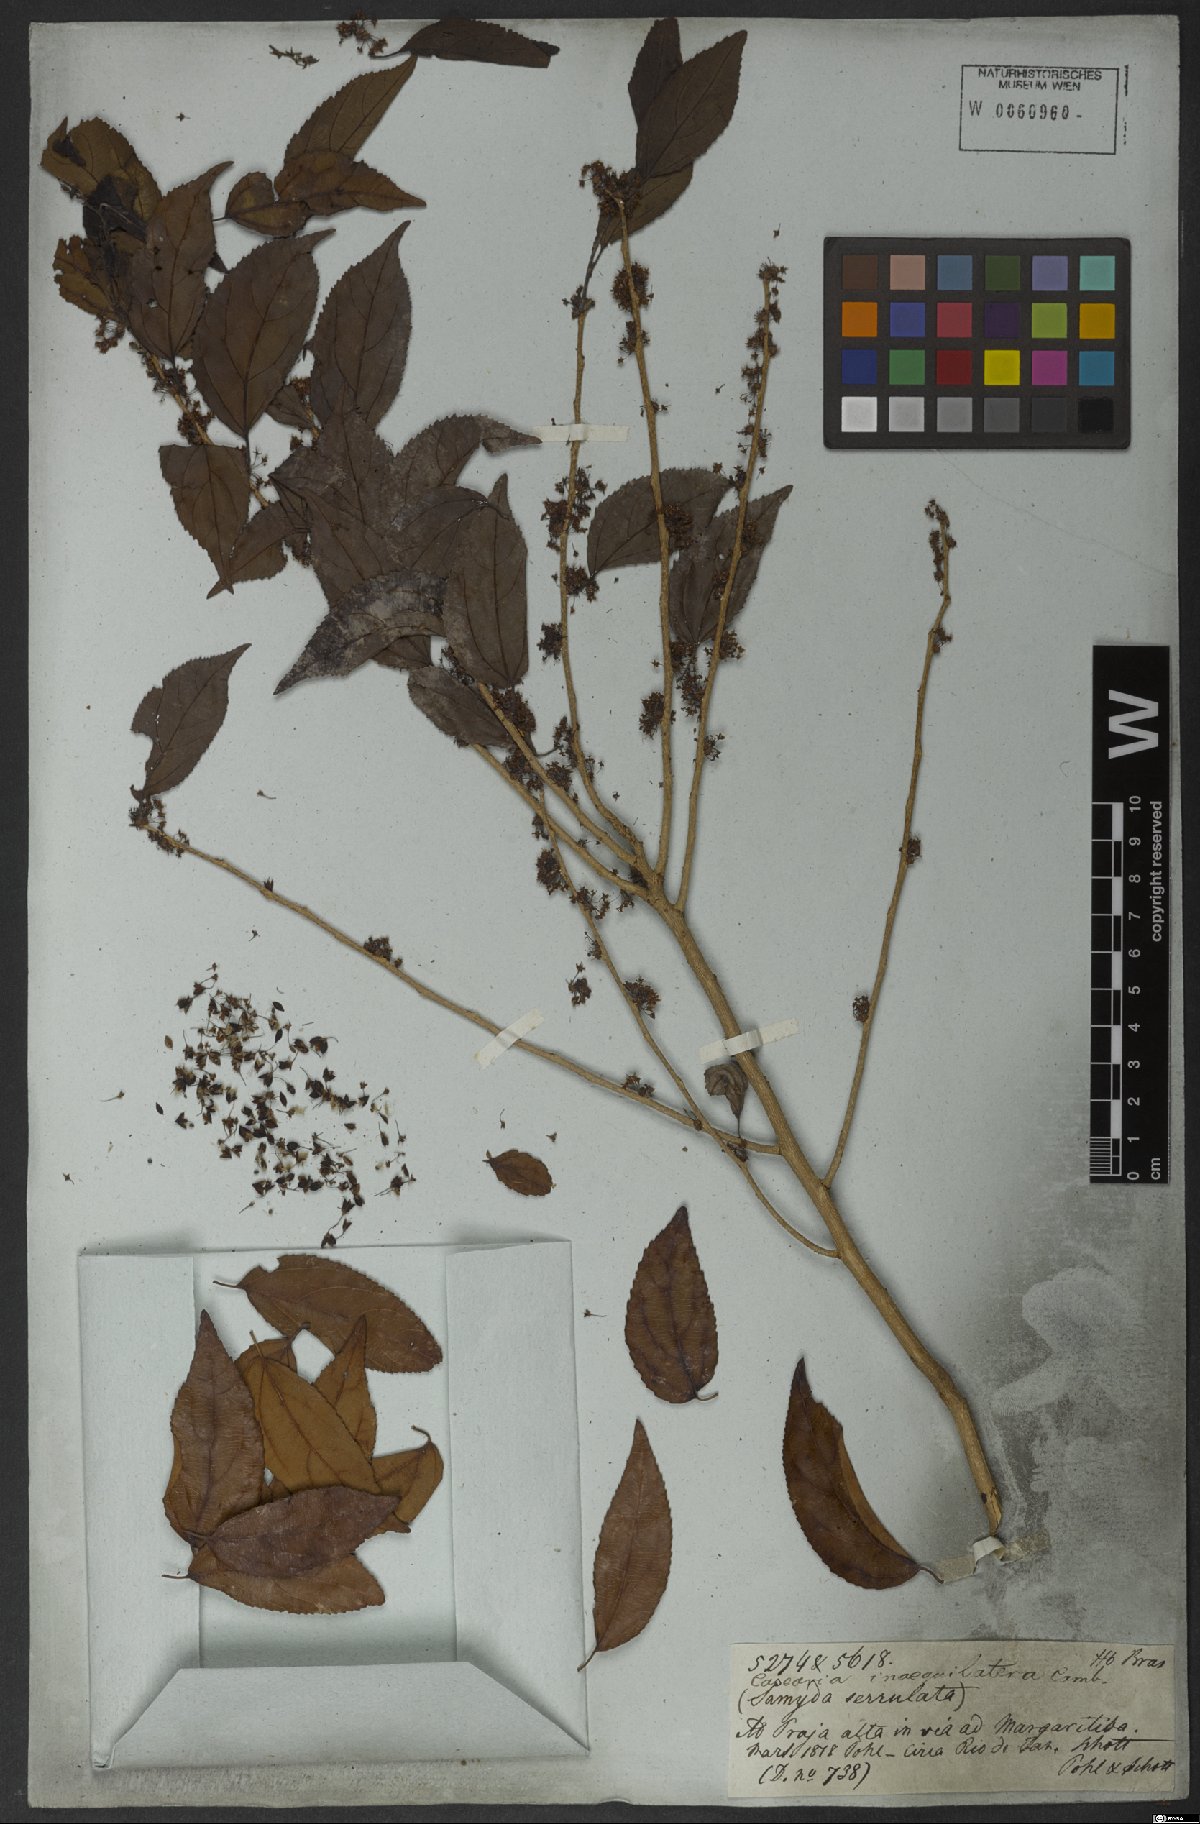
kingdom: Plantae
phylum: Tracheophyta
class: Magnoliopsida
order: Malpighiales
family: Salicaceae
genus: Casearia
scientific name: Casearia obliqua
